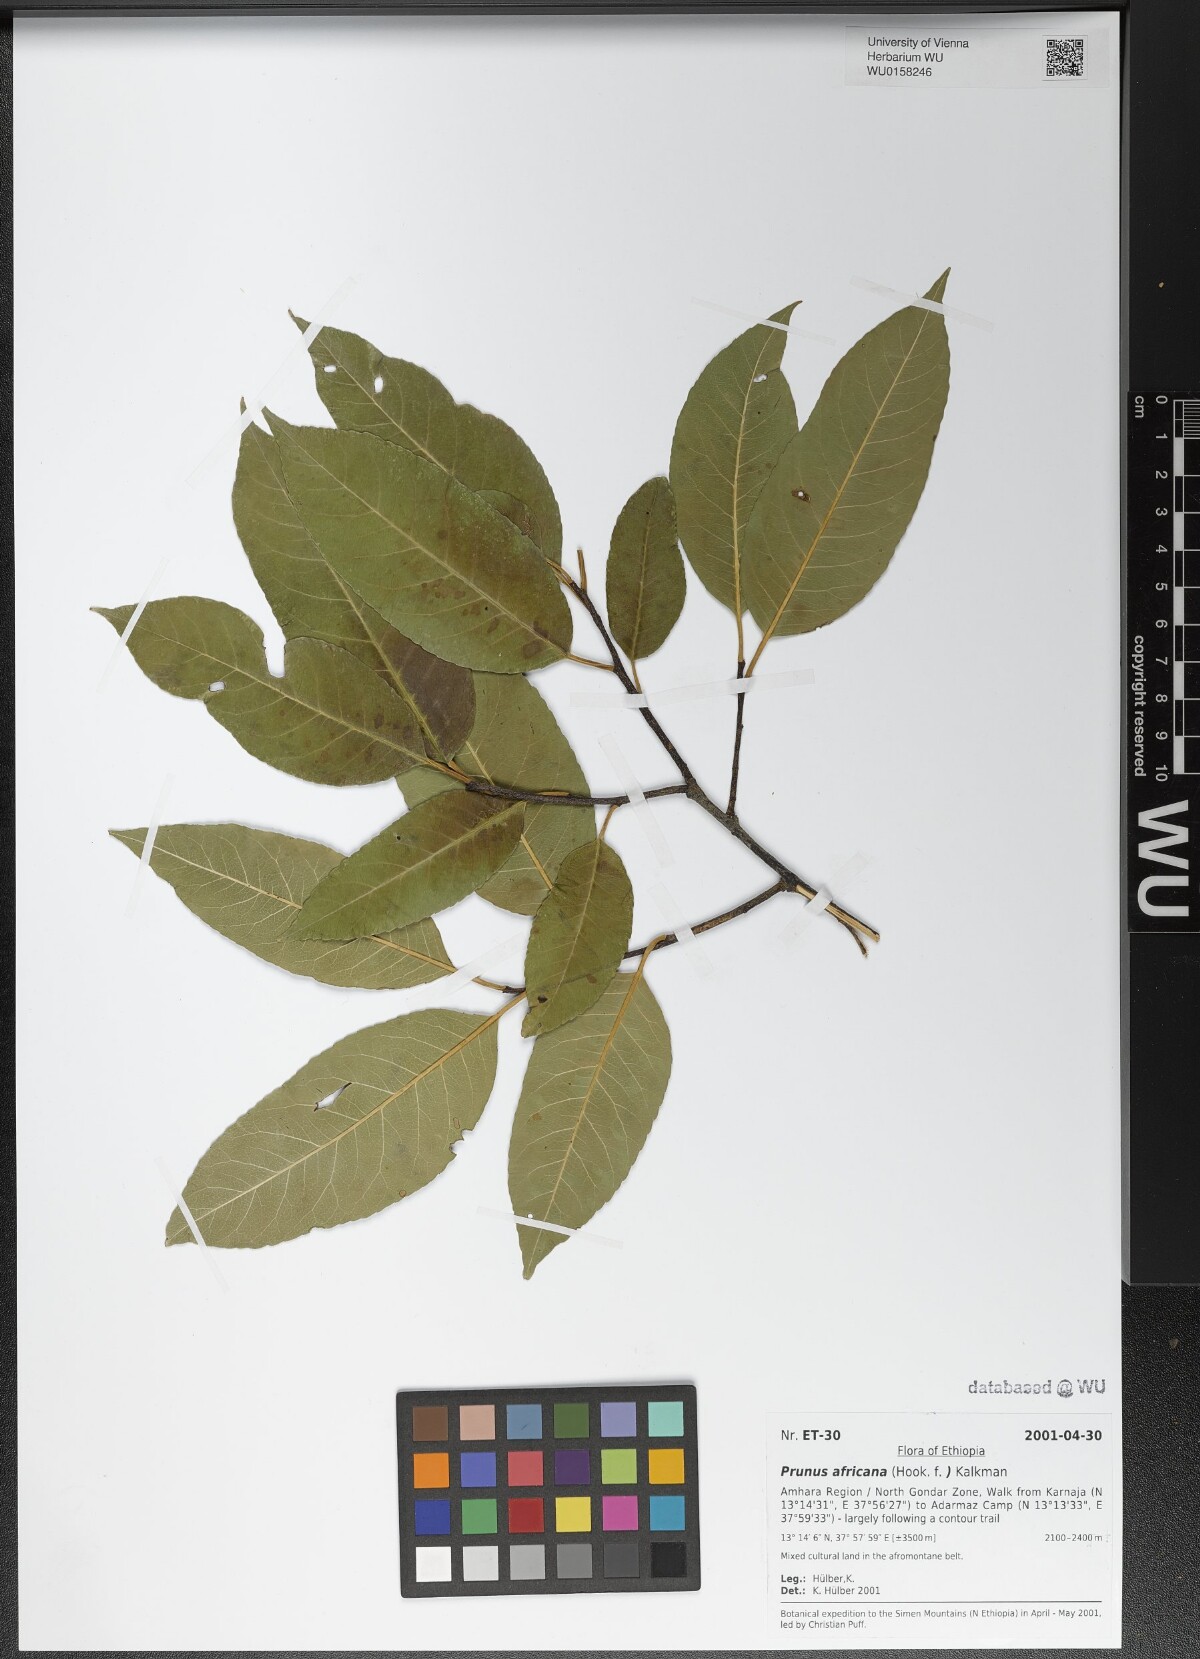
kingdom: Plantae
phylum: Tracheophyta
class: Magnoliopsida
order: Rosales
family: Rosaceae
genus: Prunus
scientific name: Prunus africana
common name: African cherry
